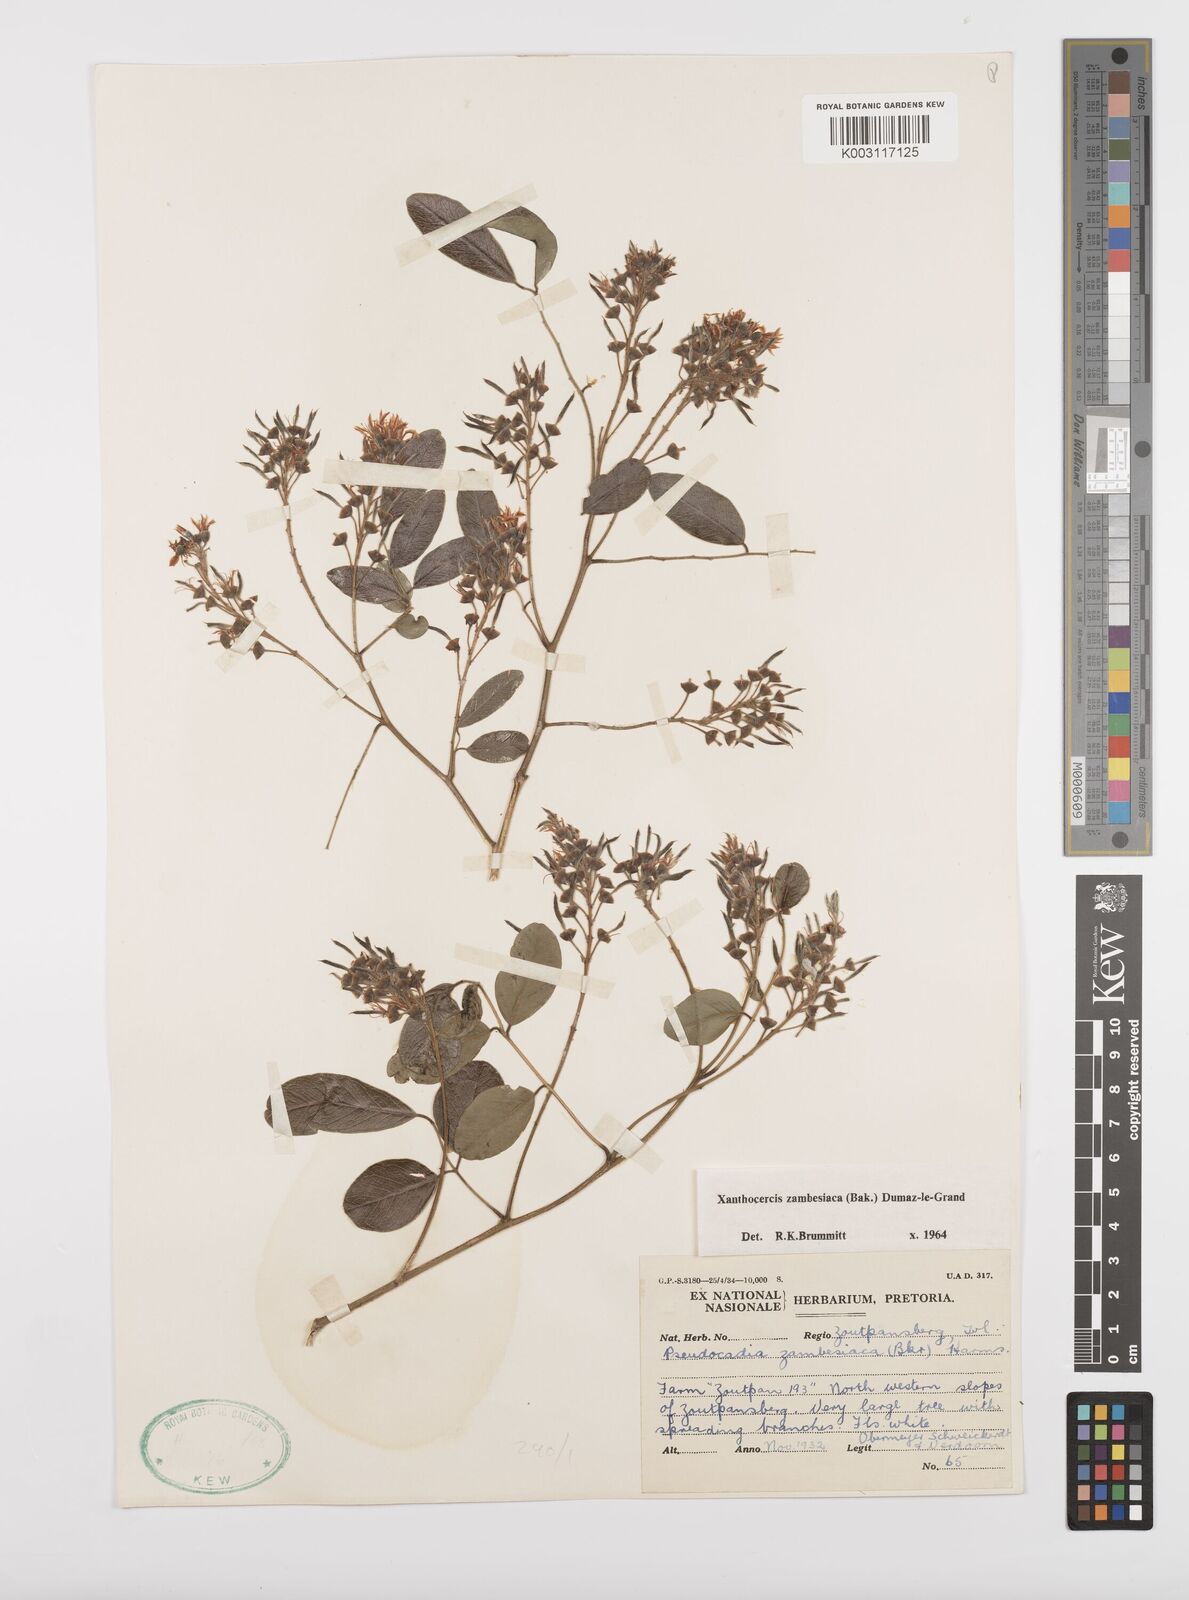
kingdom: Plantae
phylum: Tracheophyta
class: Magnoliopsida
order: Fabales
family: Fabaceae
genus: Xanthocercis
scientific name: Xanthocercis zambesiaca
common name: Nyala-tree
